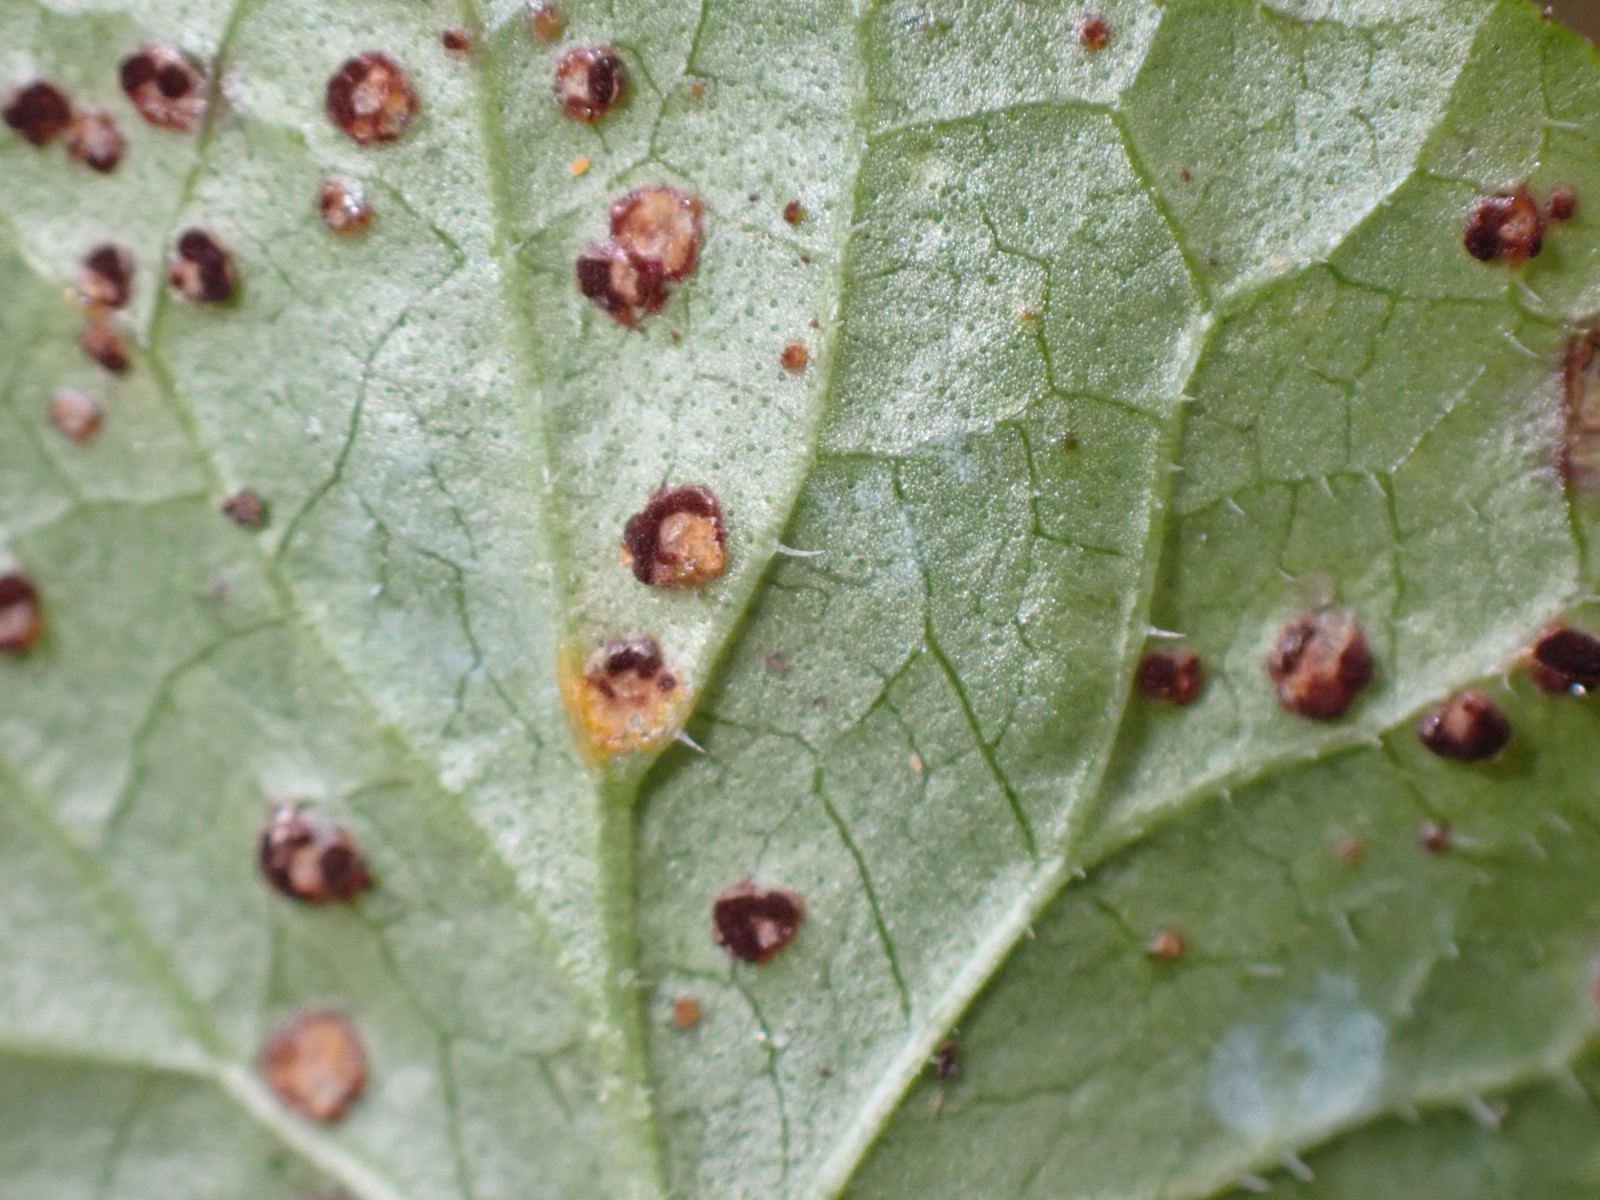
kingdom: Fungi
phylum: Basidiomycota
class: Pucciniomycetes
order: Pucciniales
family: Pucciniaceae
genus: Puccinia
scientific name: Puccinia glechomatis
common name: Ground ivy rust
